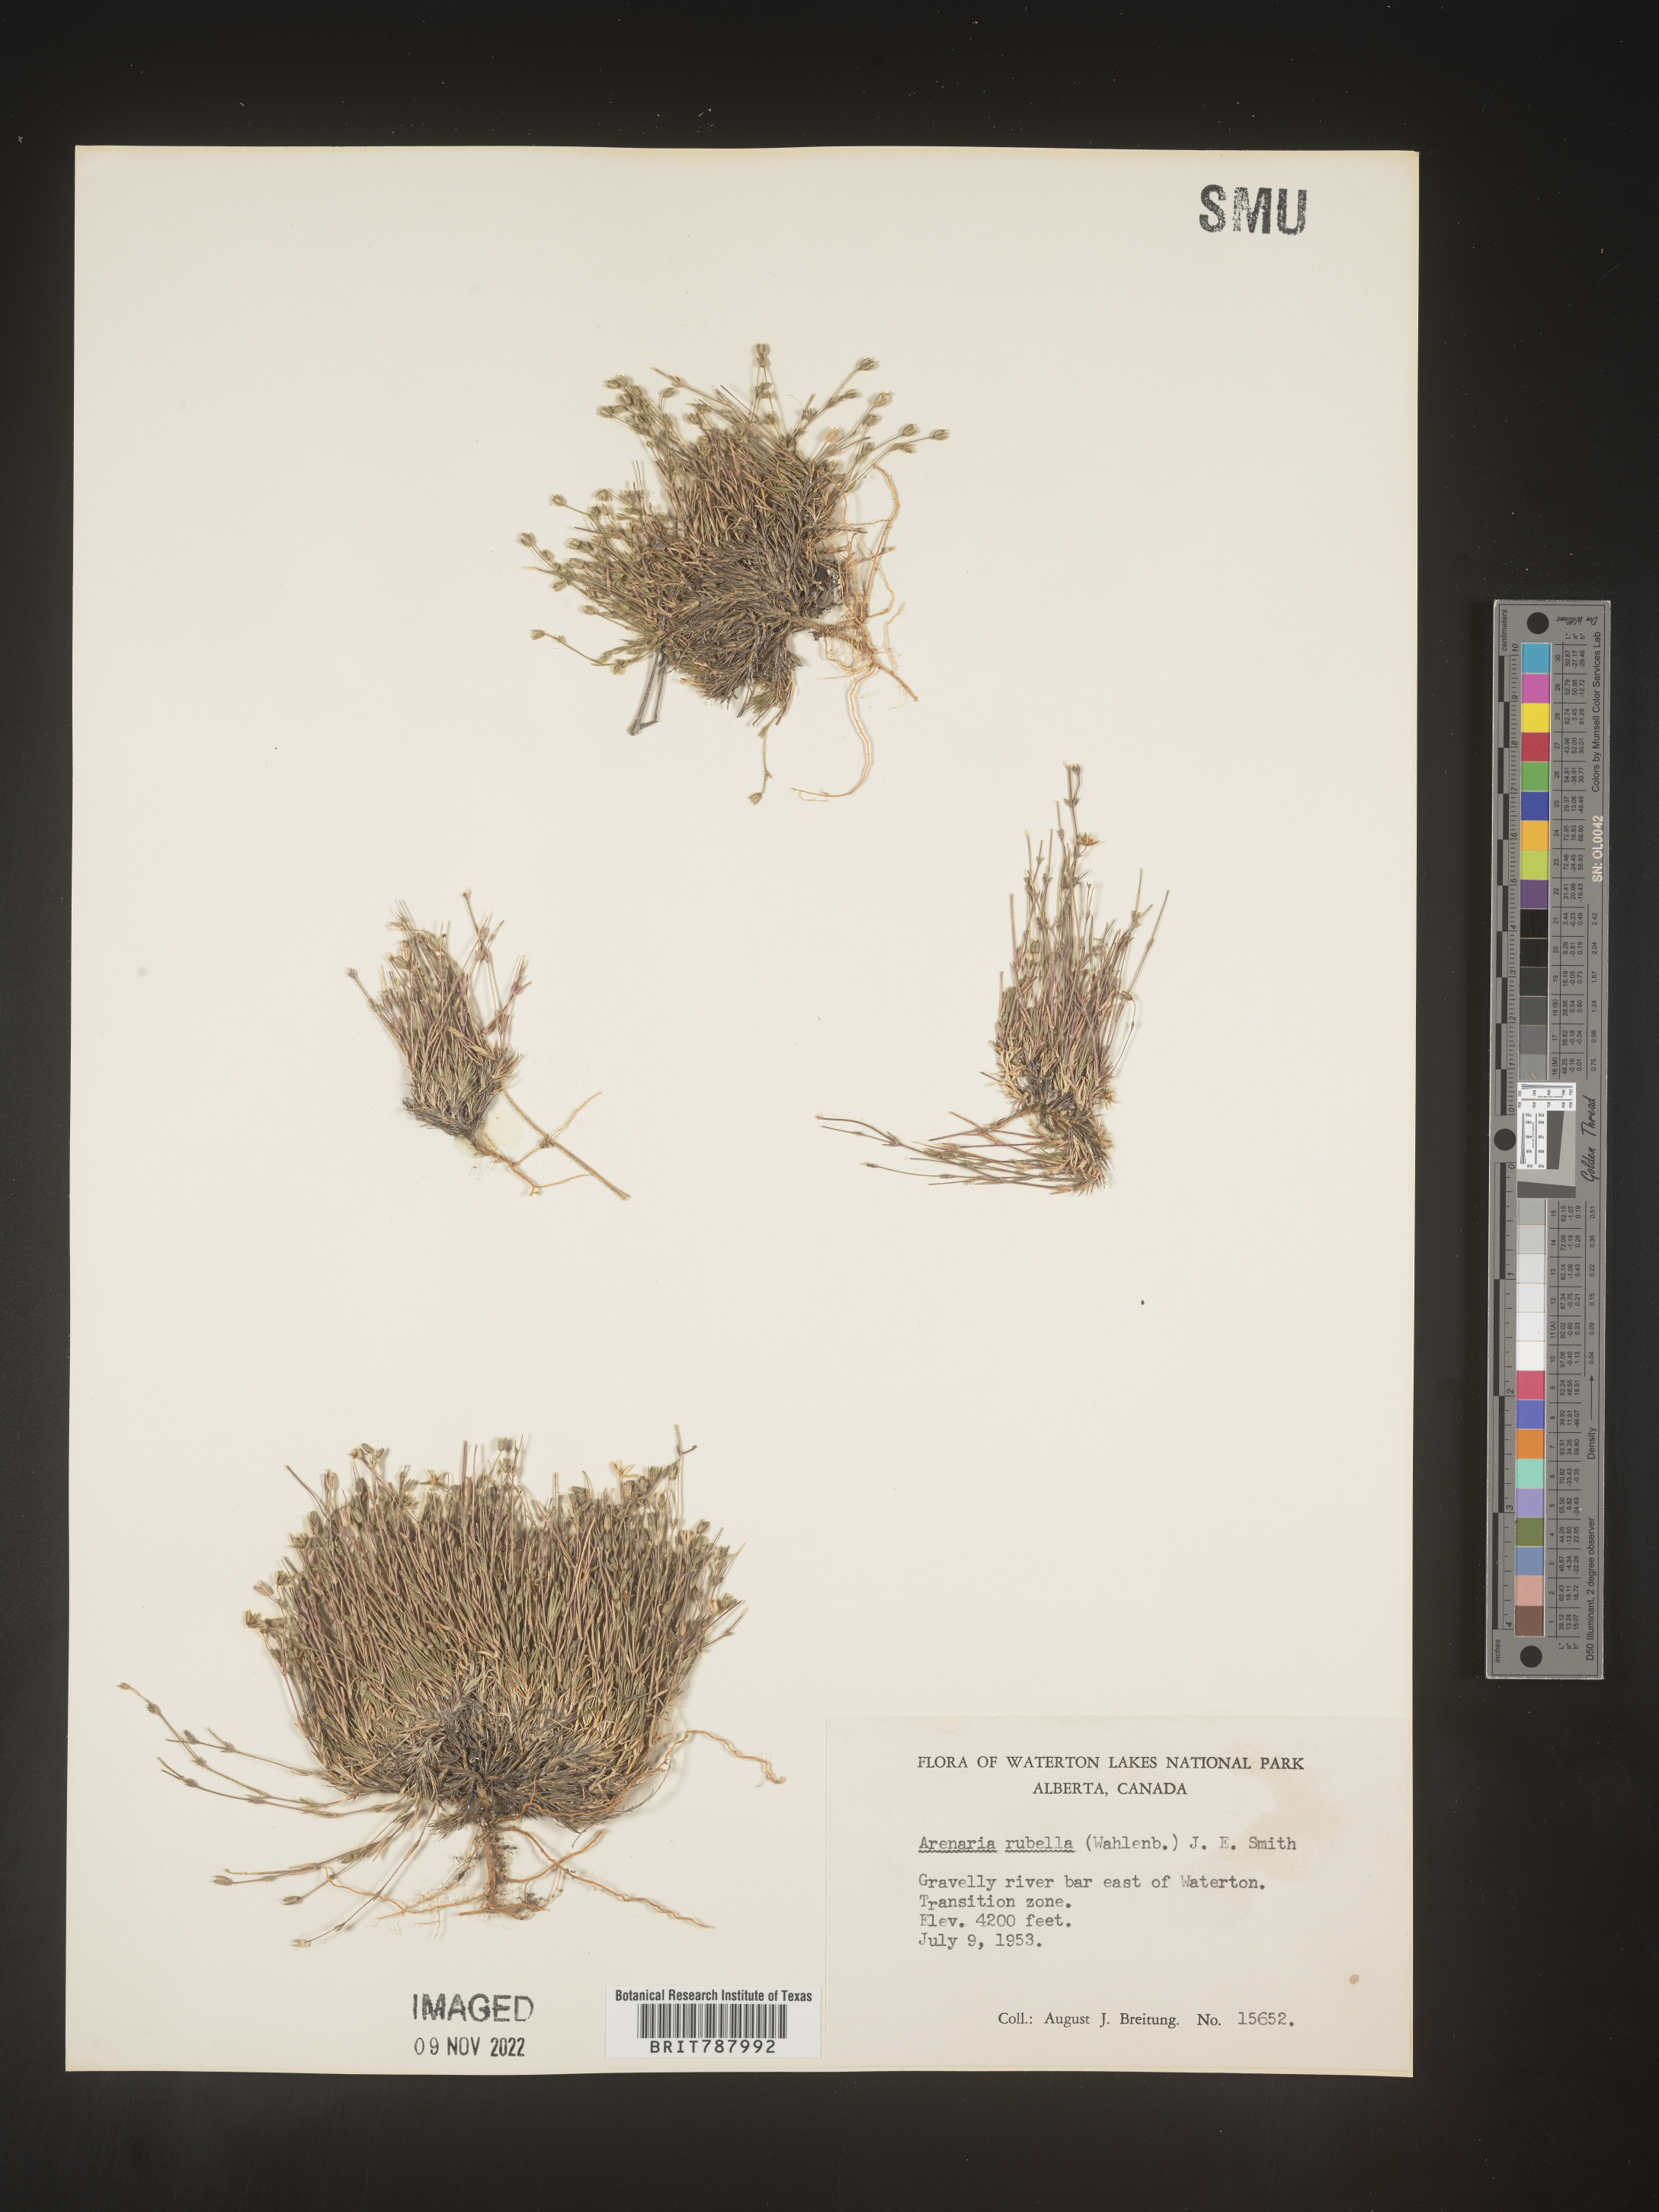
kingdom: Plantae
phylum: Tracheophyta
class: Magnoliopsida
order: Caryophyllales
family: Caryophyllaceae
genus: Arenaria
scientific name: Arenaria
